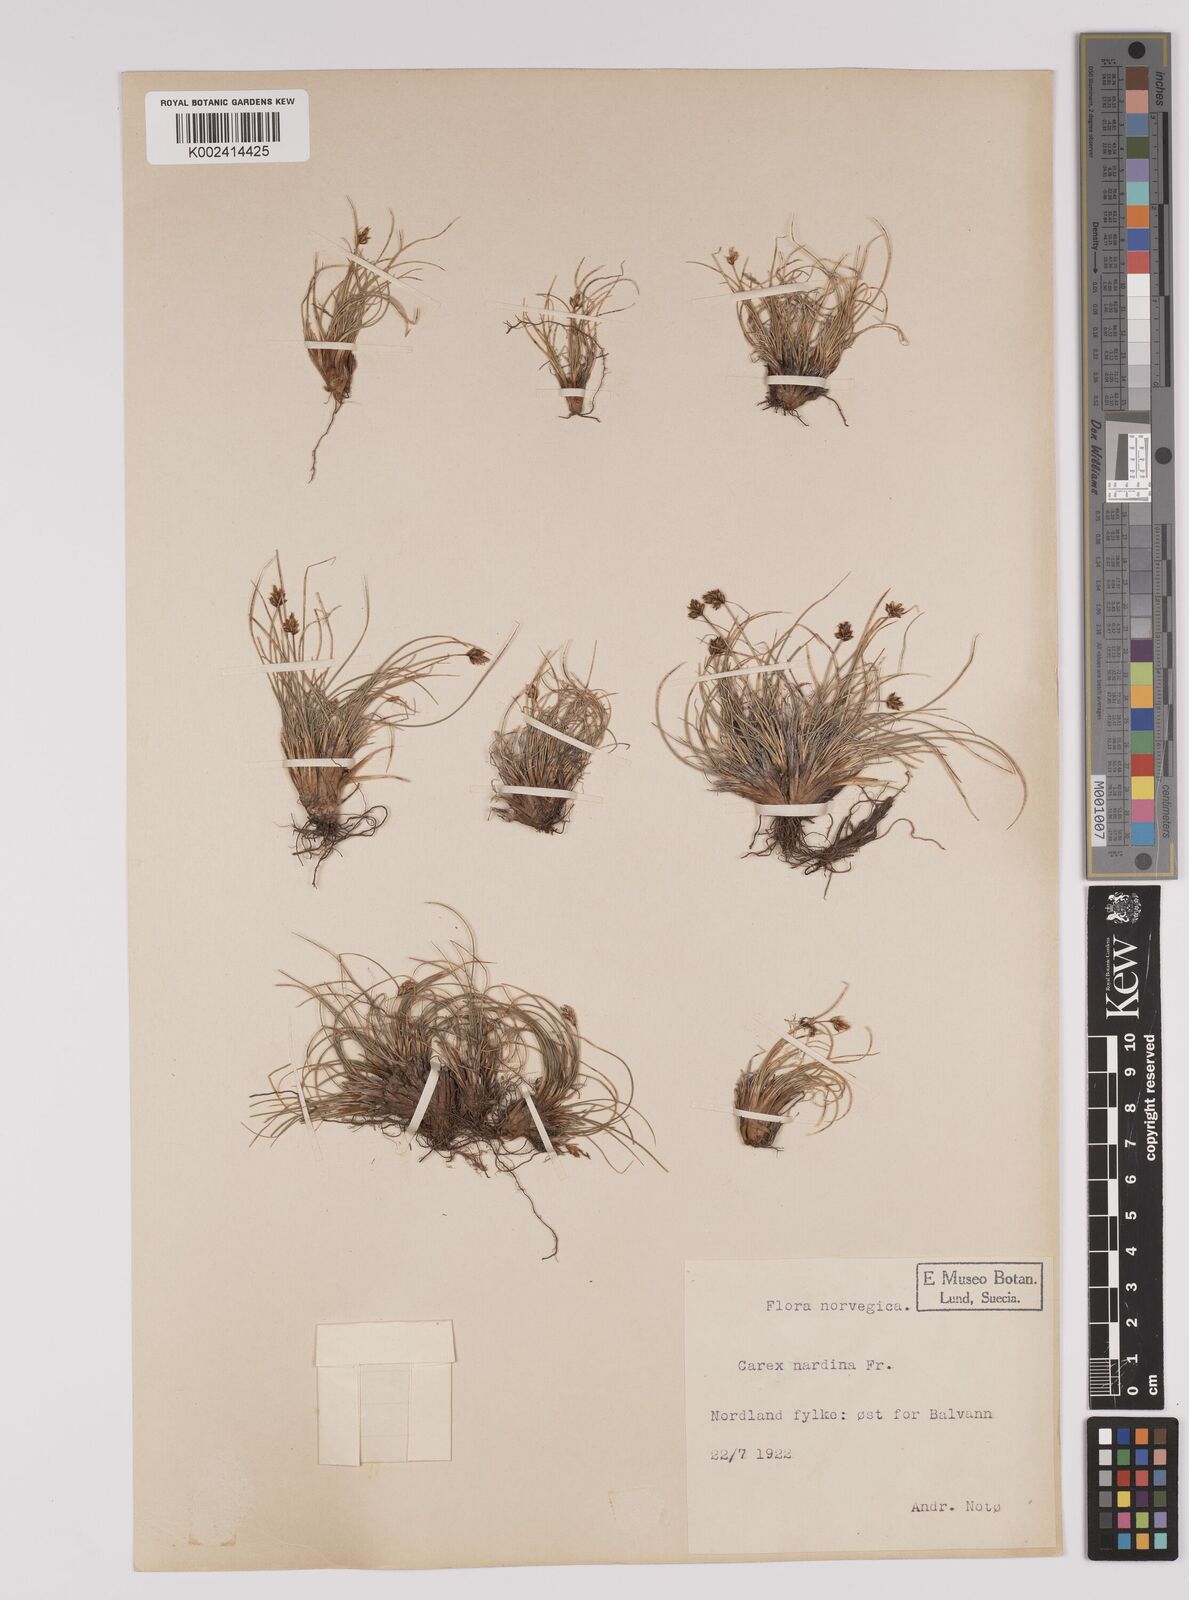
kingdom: Plantae
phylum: Tracheophyta
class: Liliopsida
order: Poales
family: Cyperaceae
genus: Carex
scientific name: Carex nardina
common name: Nard sedge
